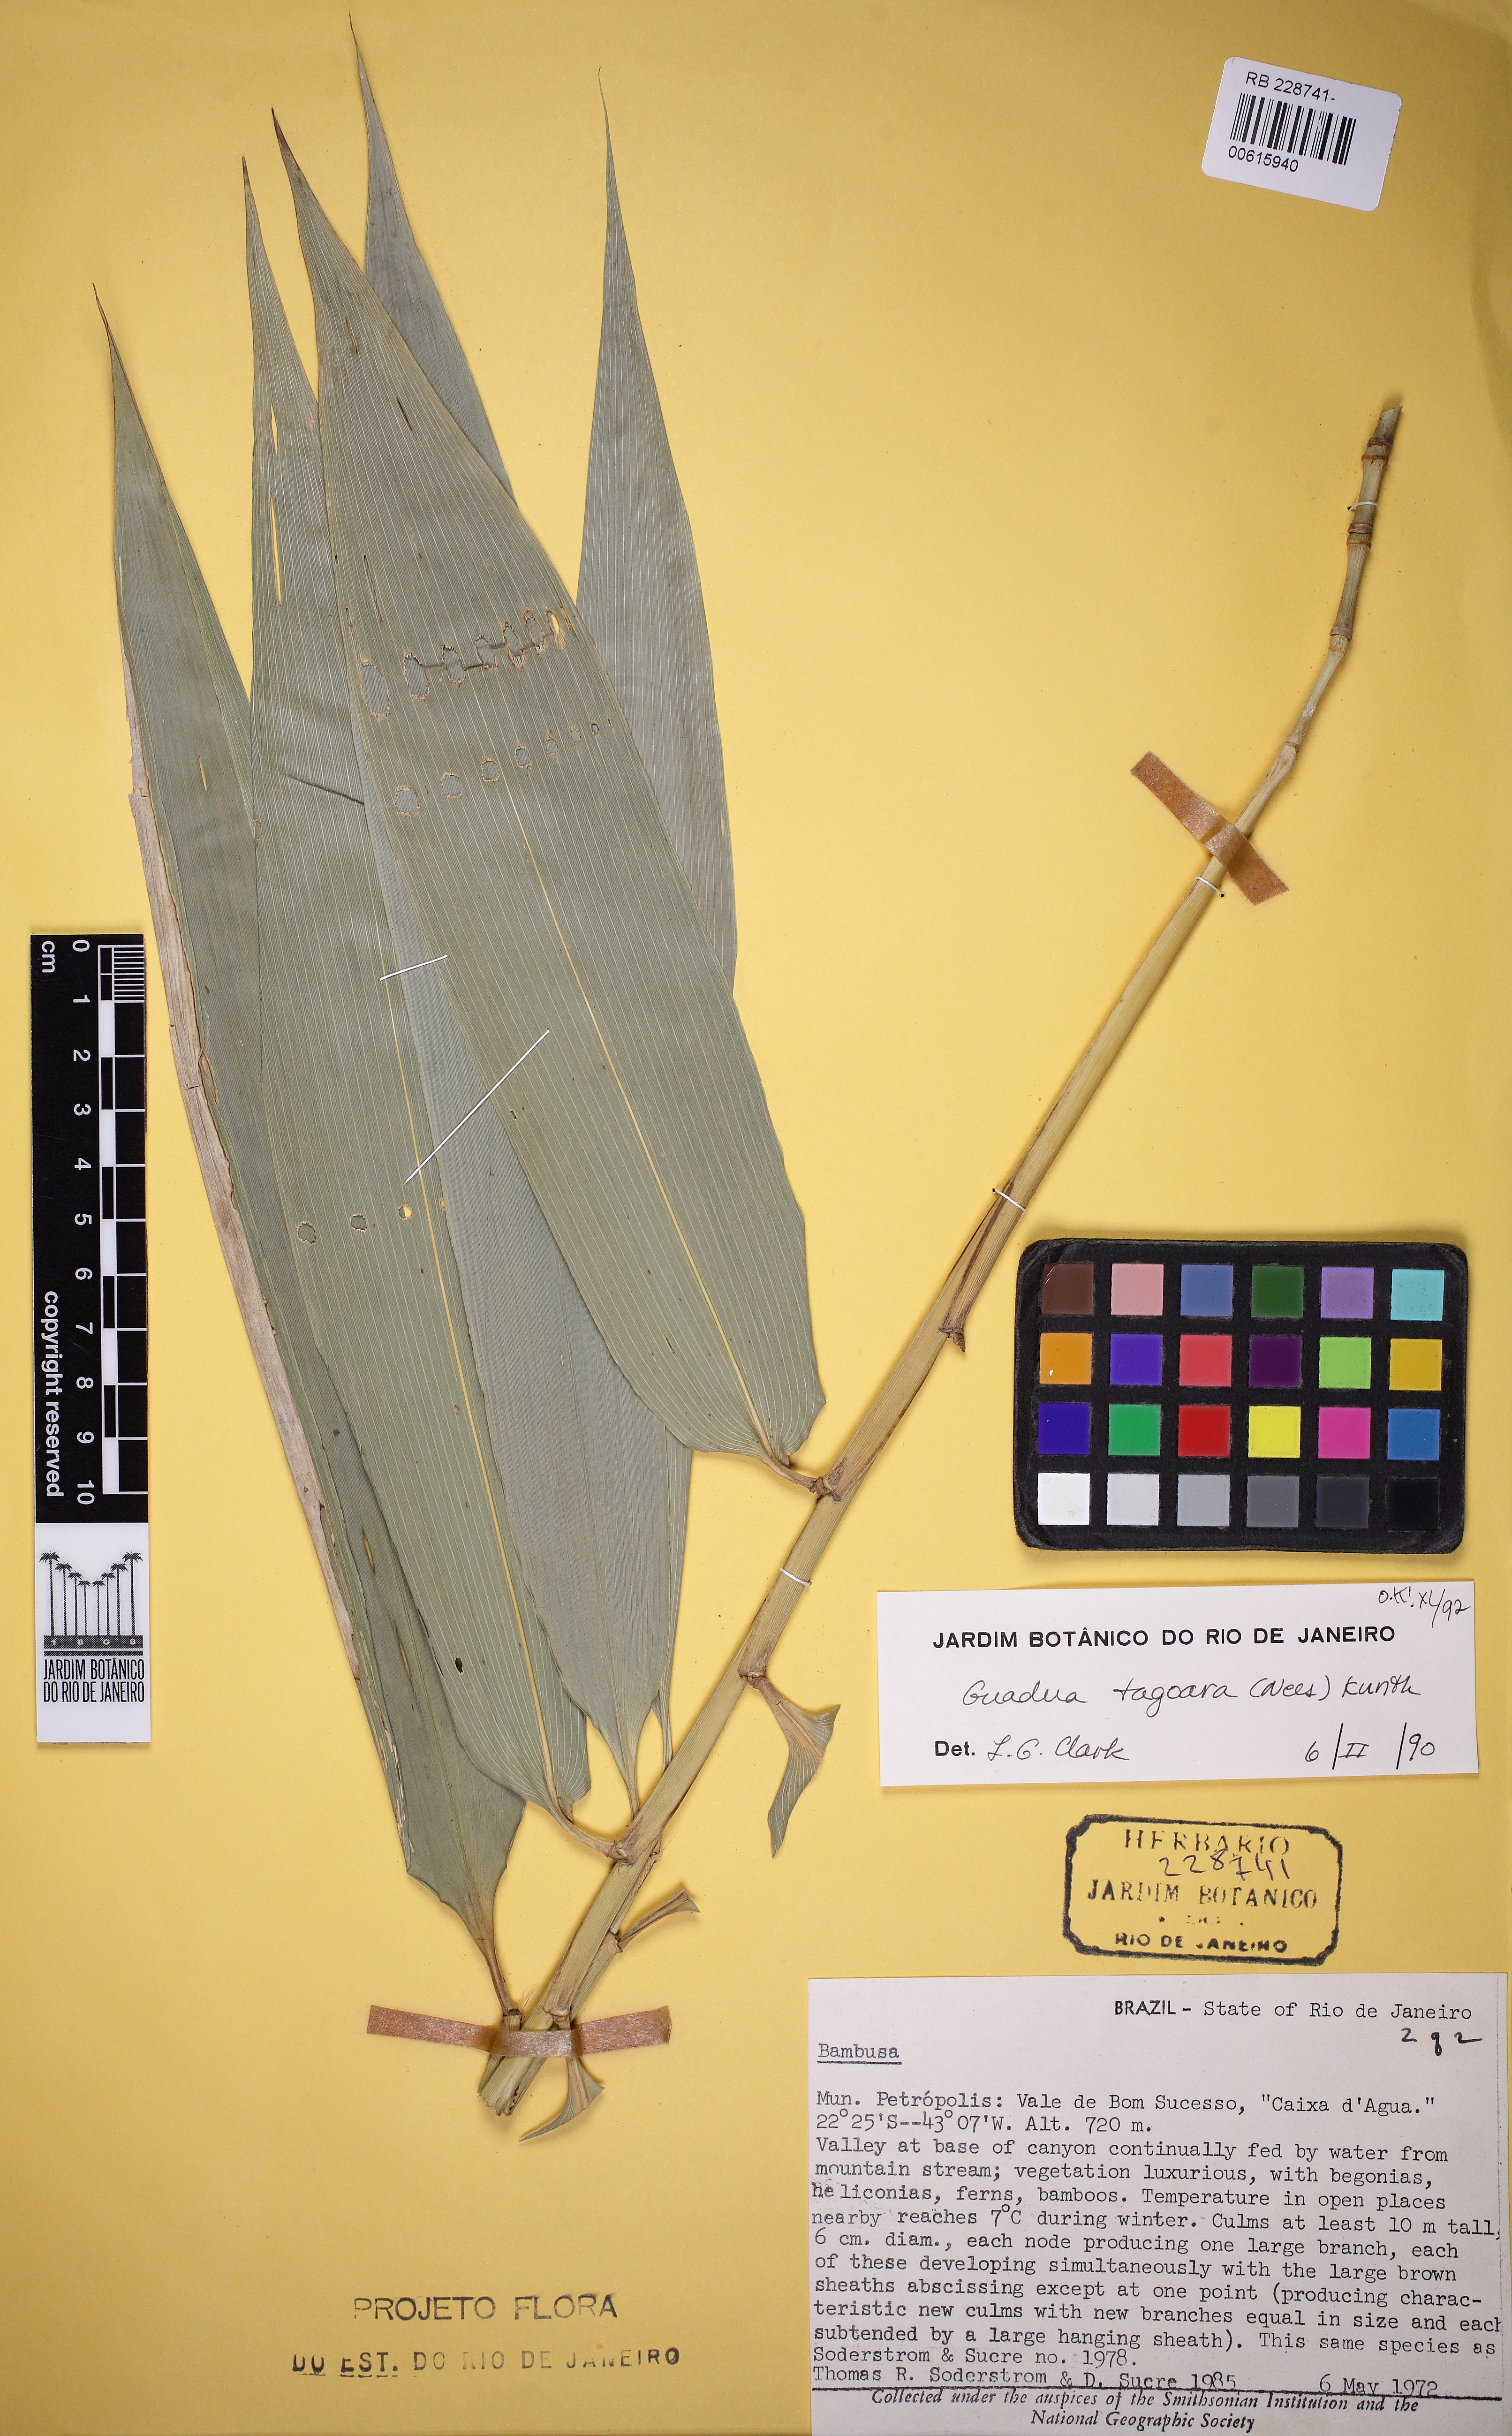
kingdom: Plantae
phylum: Tracheophyta
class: Liliopsida
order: Poales
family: Poaceae
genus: Guadua
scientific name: Guadua tagoara
